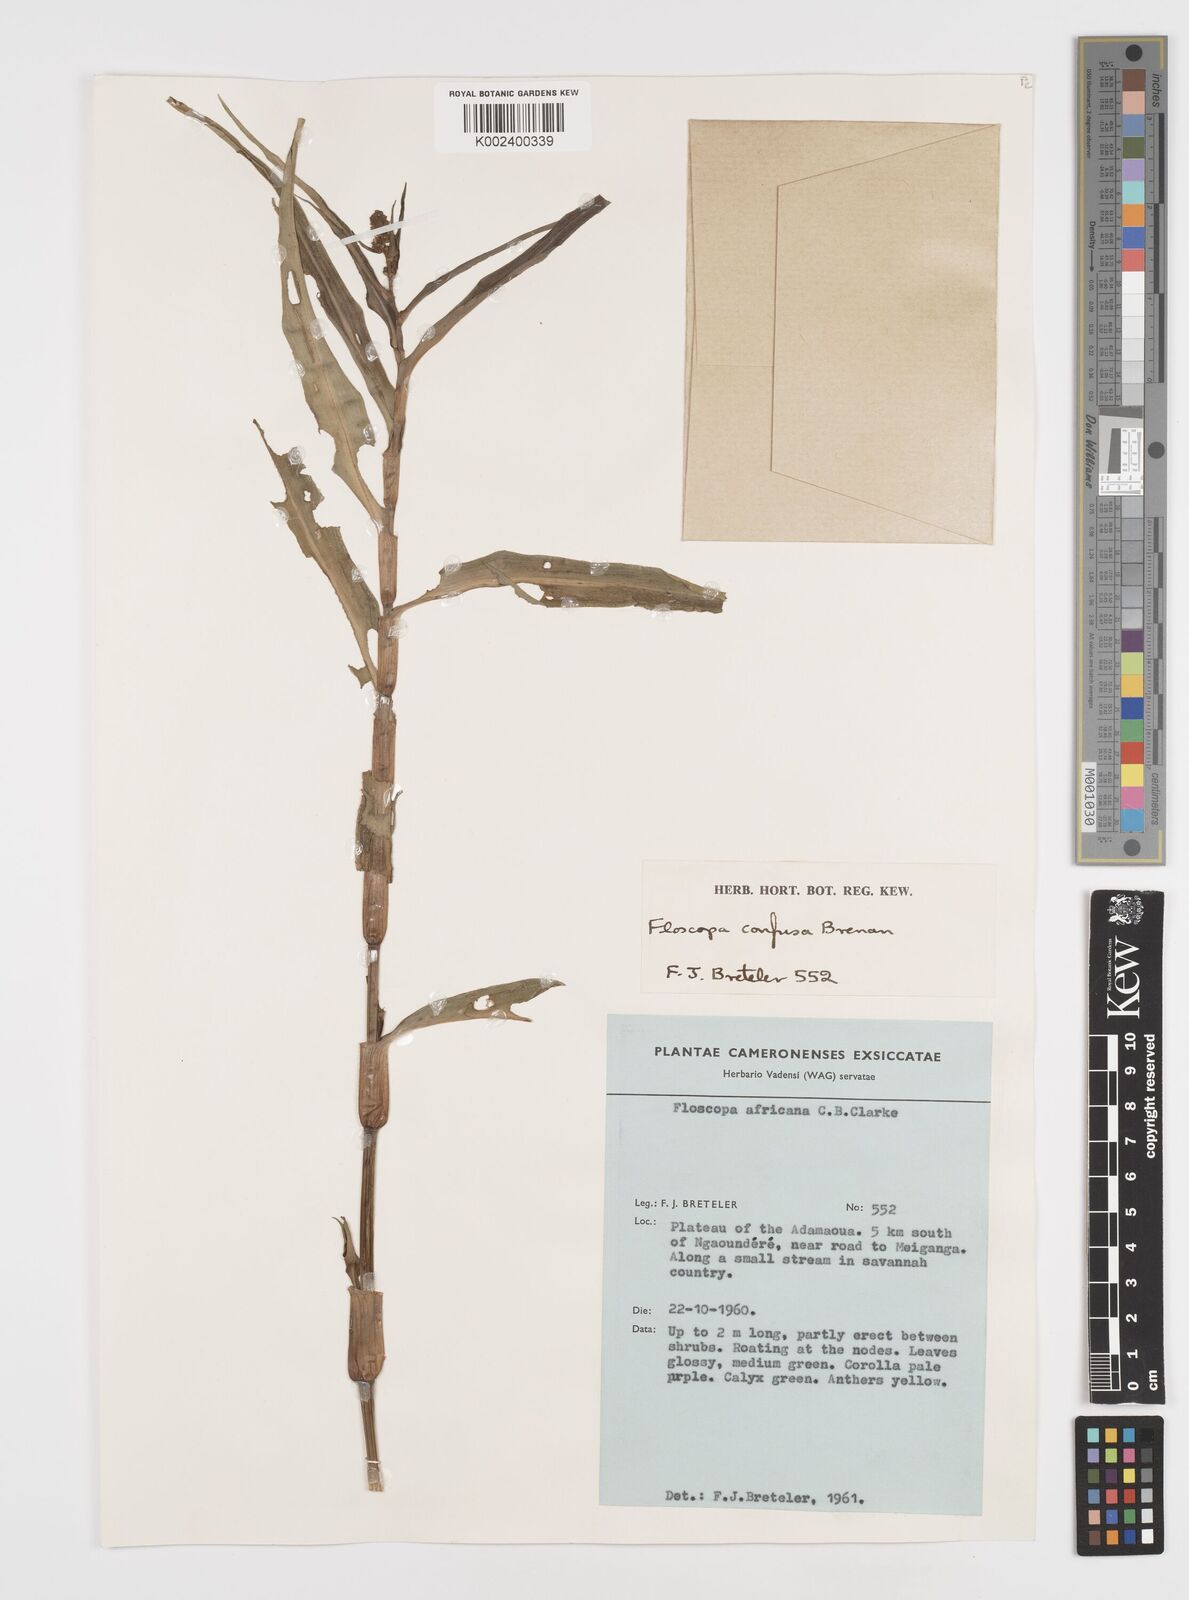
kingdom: Plantae
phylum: Tracheophyta
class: Liliopsida
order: Commelinales
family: Commelinaceae
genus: Floscopa
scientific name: Floscopa confusa
